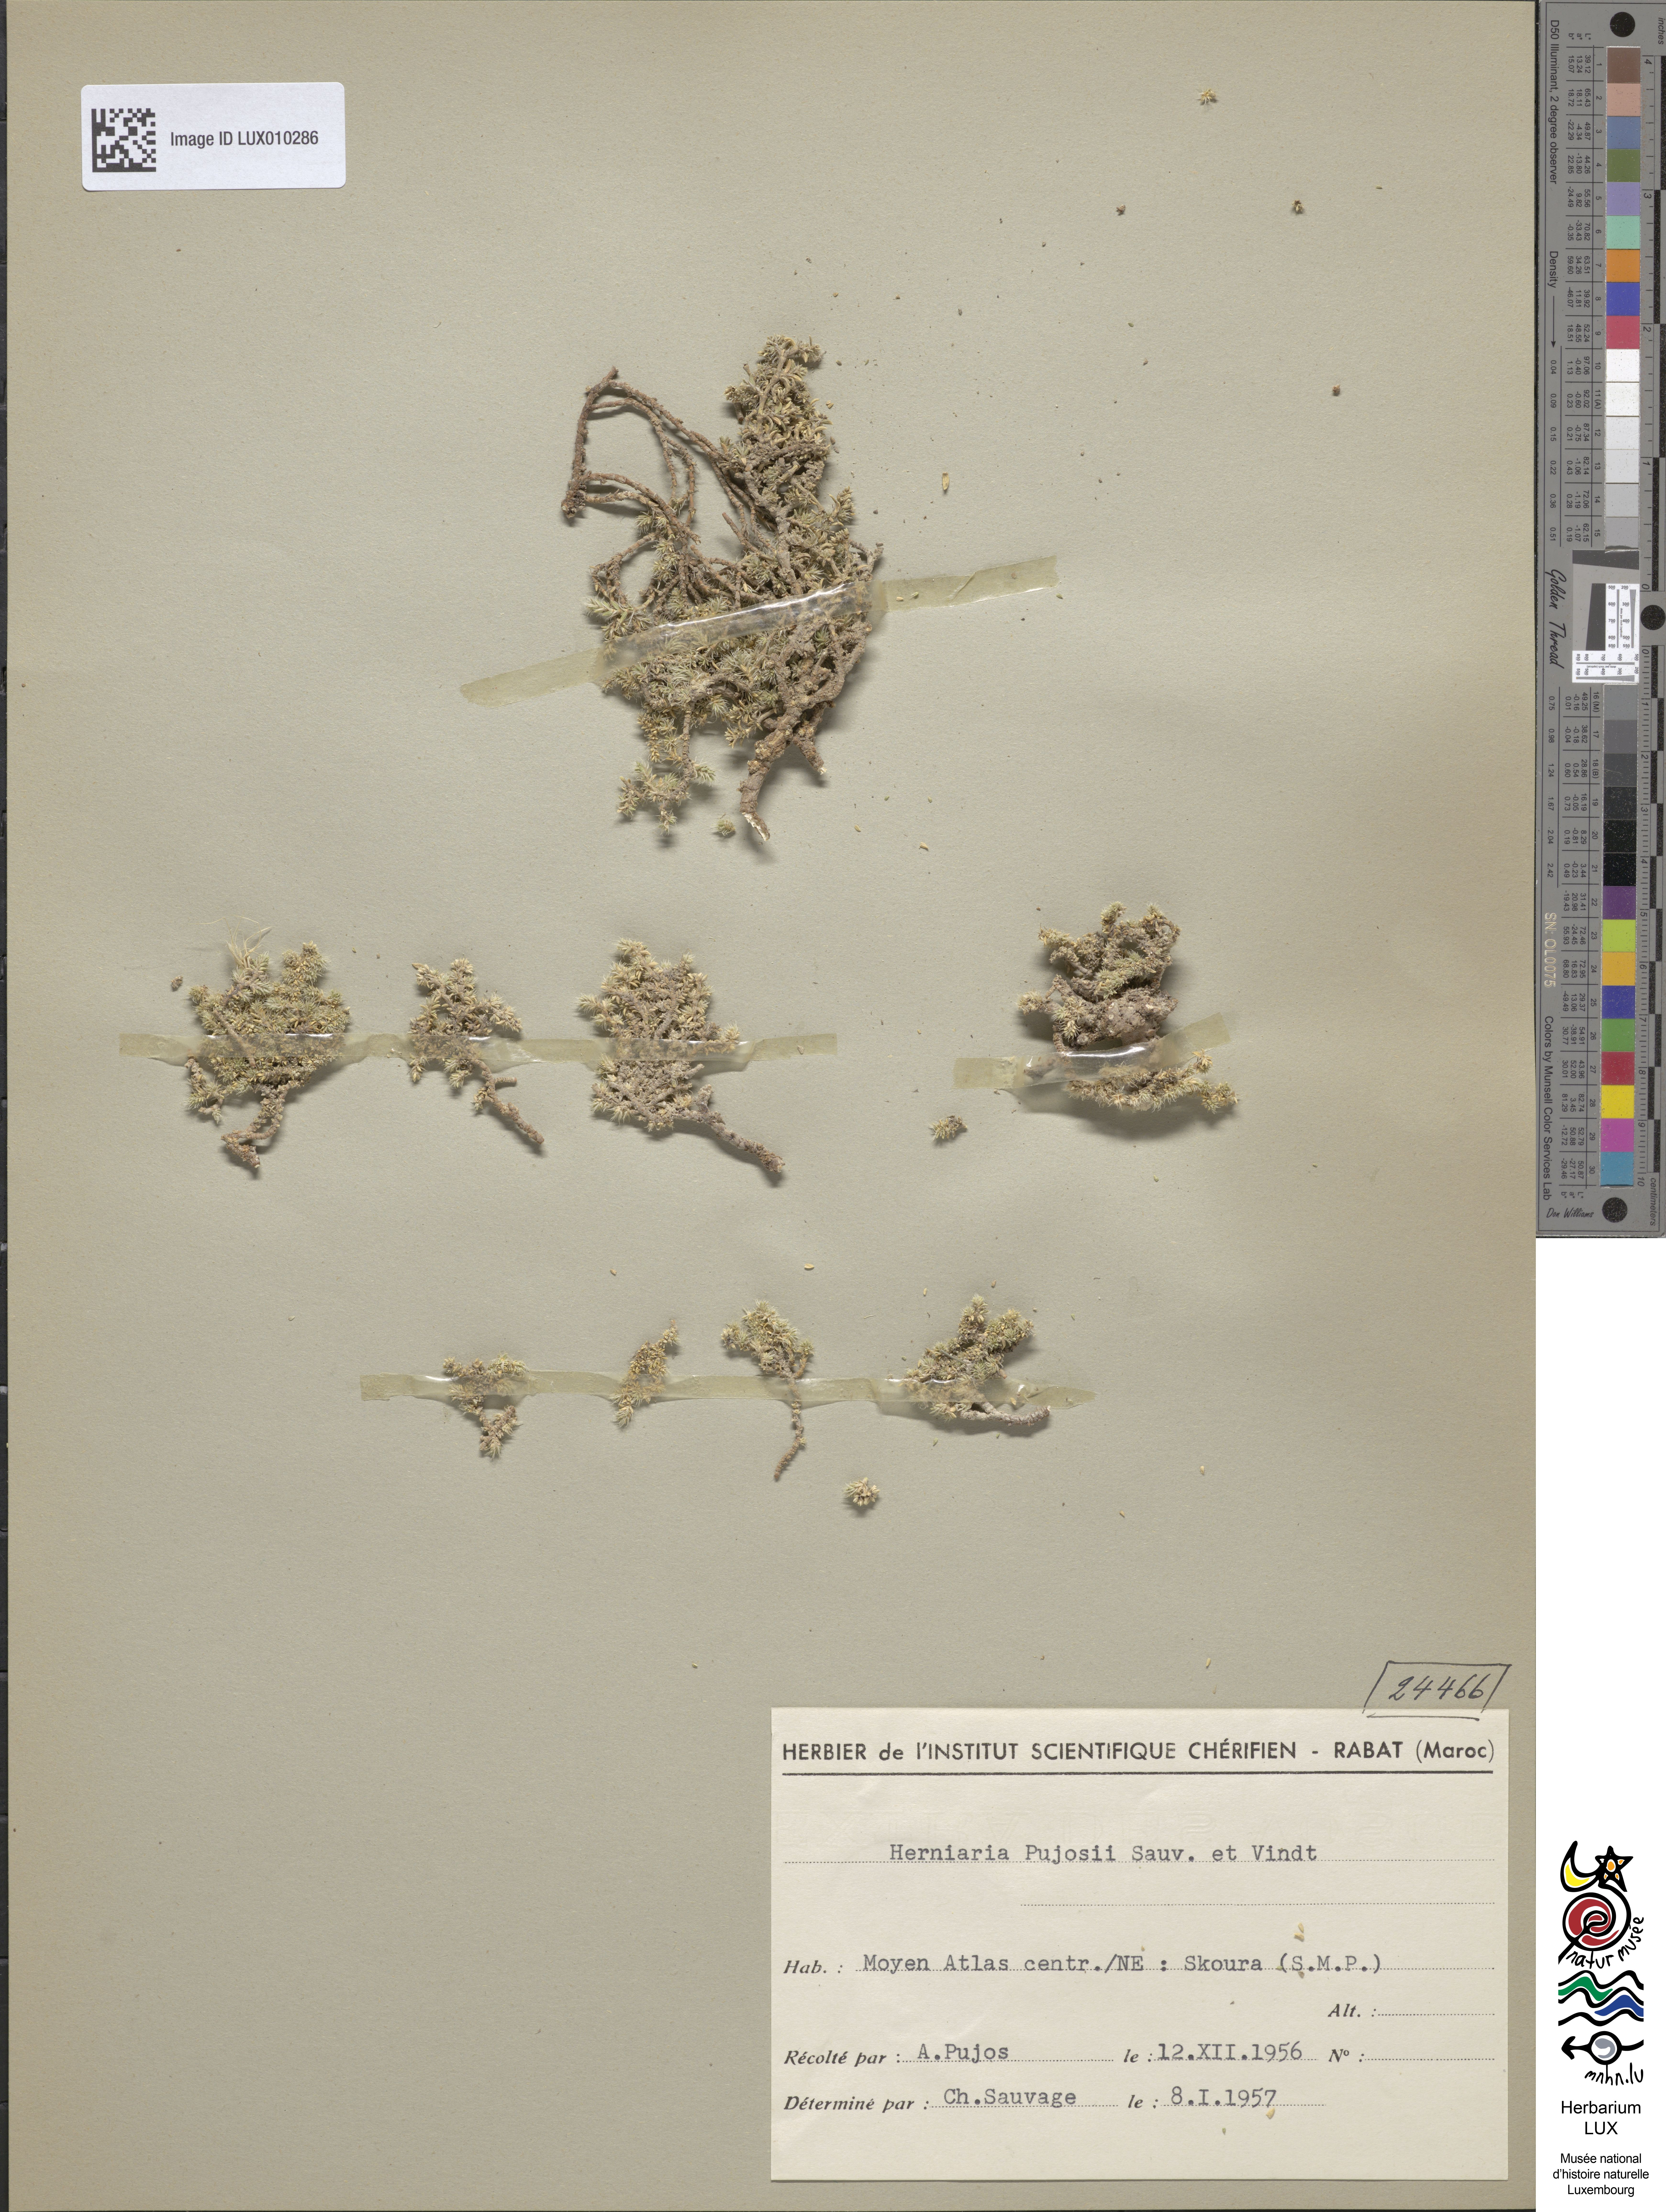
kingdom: Plantae
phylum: Tracheophyta
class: Magnoliopsida
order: Caryophyllales
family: Caryophyllaceae
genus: Herniaria
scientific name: Herniaria pujosii
